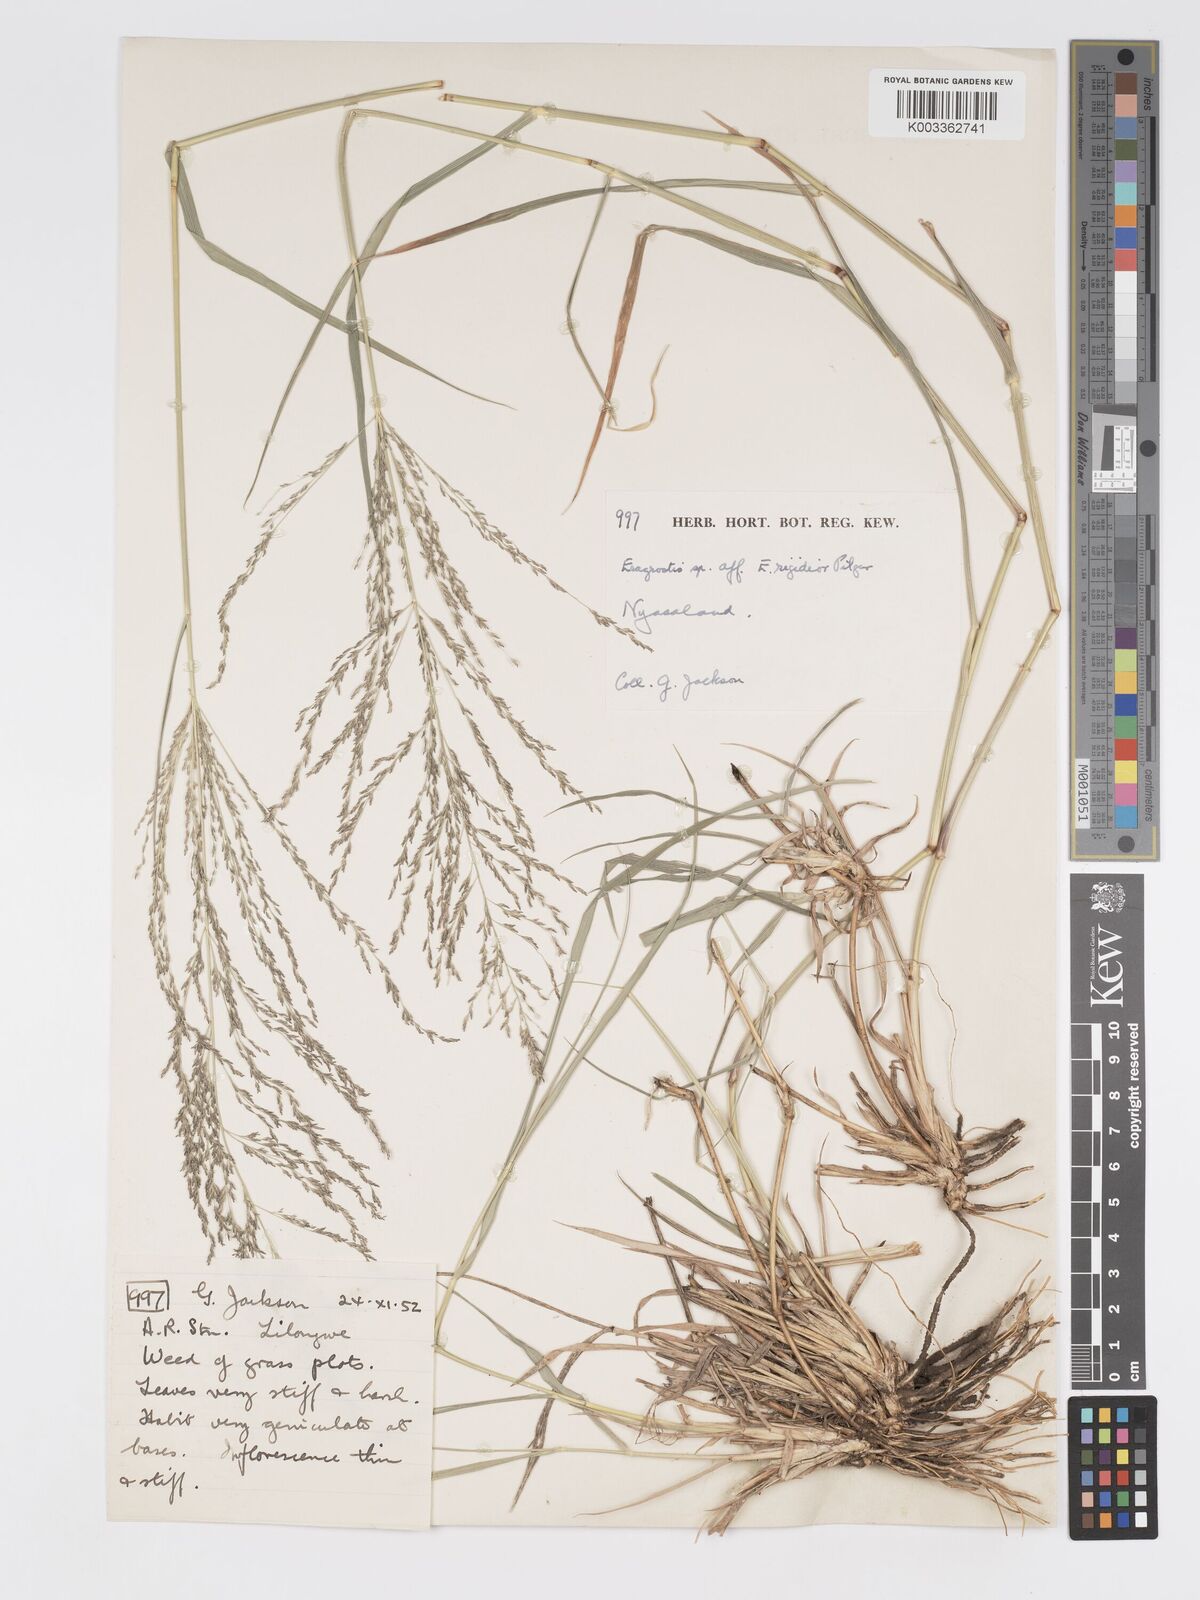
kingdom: Plantae
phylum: Tracheophyta
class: Liliopsida
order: Poales
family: Poaceae
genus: Eragrostis
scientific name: Eragrostis cylindriflora
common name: Cylinderflower lovegrass
